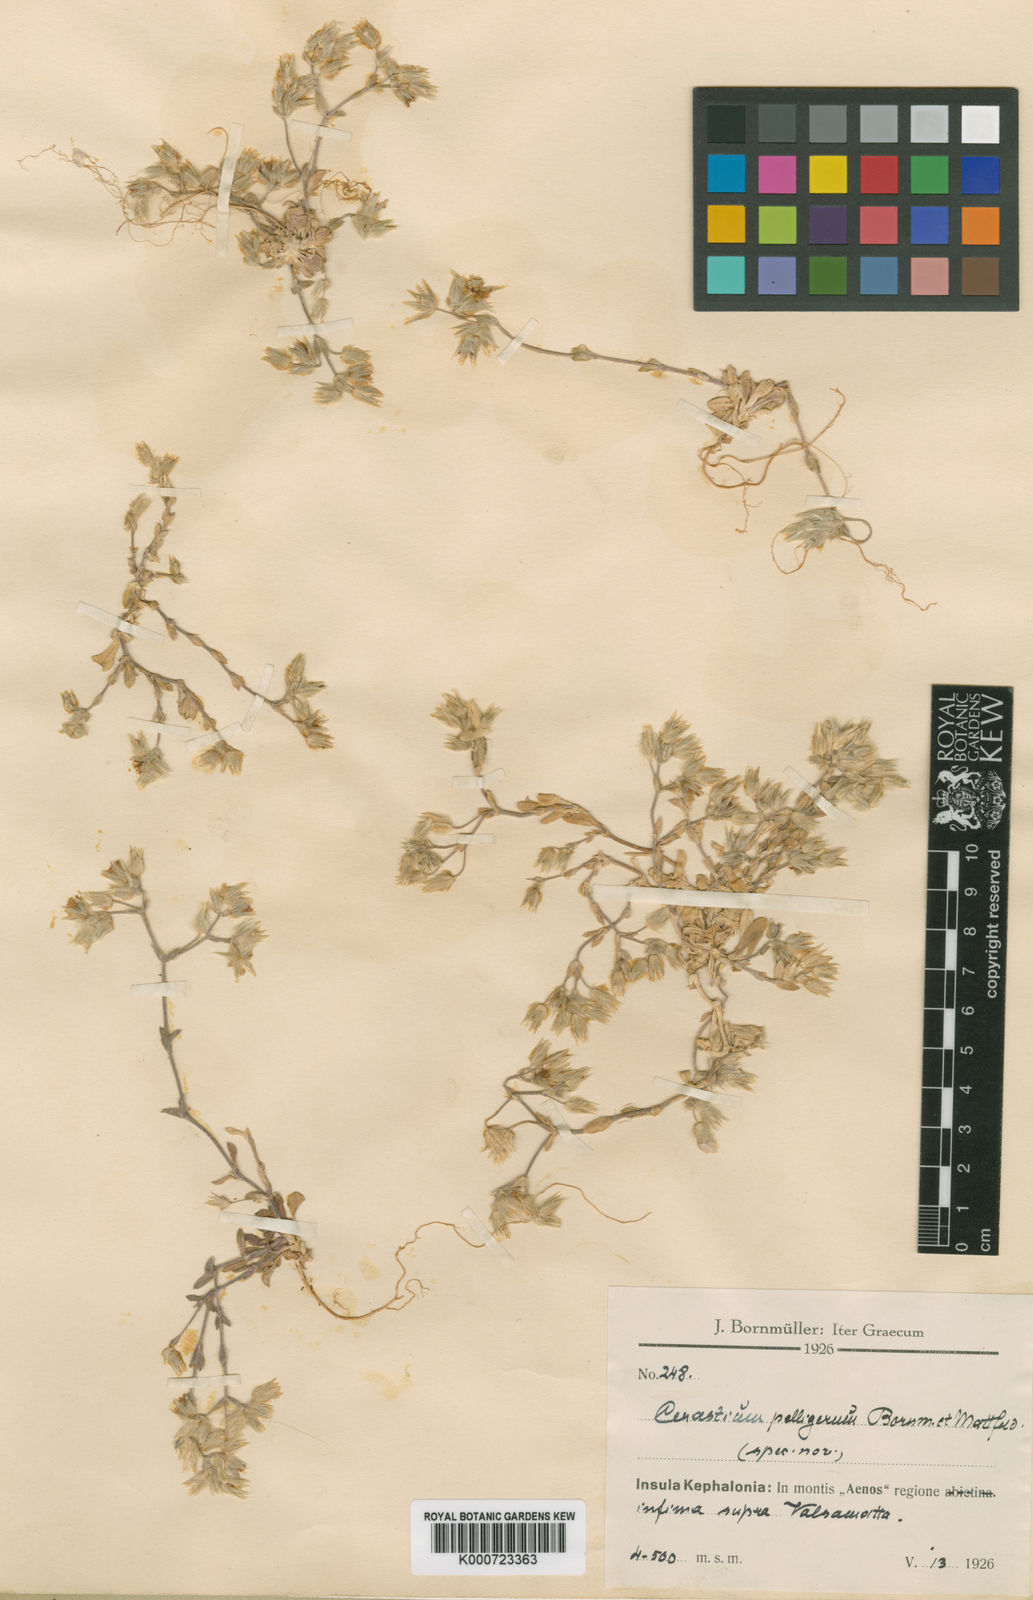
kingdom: Plantae
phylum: Tracheophyta
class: Magnoliopsida
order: Caryophyllales
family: Caryophyllaceae
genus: Cerastium
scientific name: Cerastium illyricum
